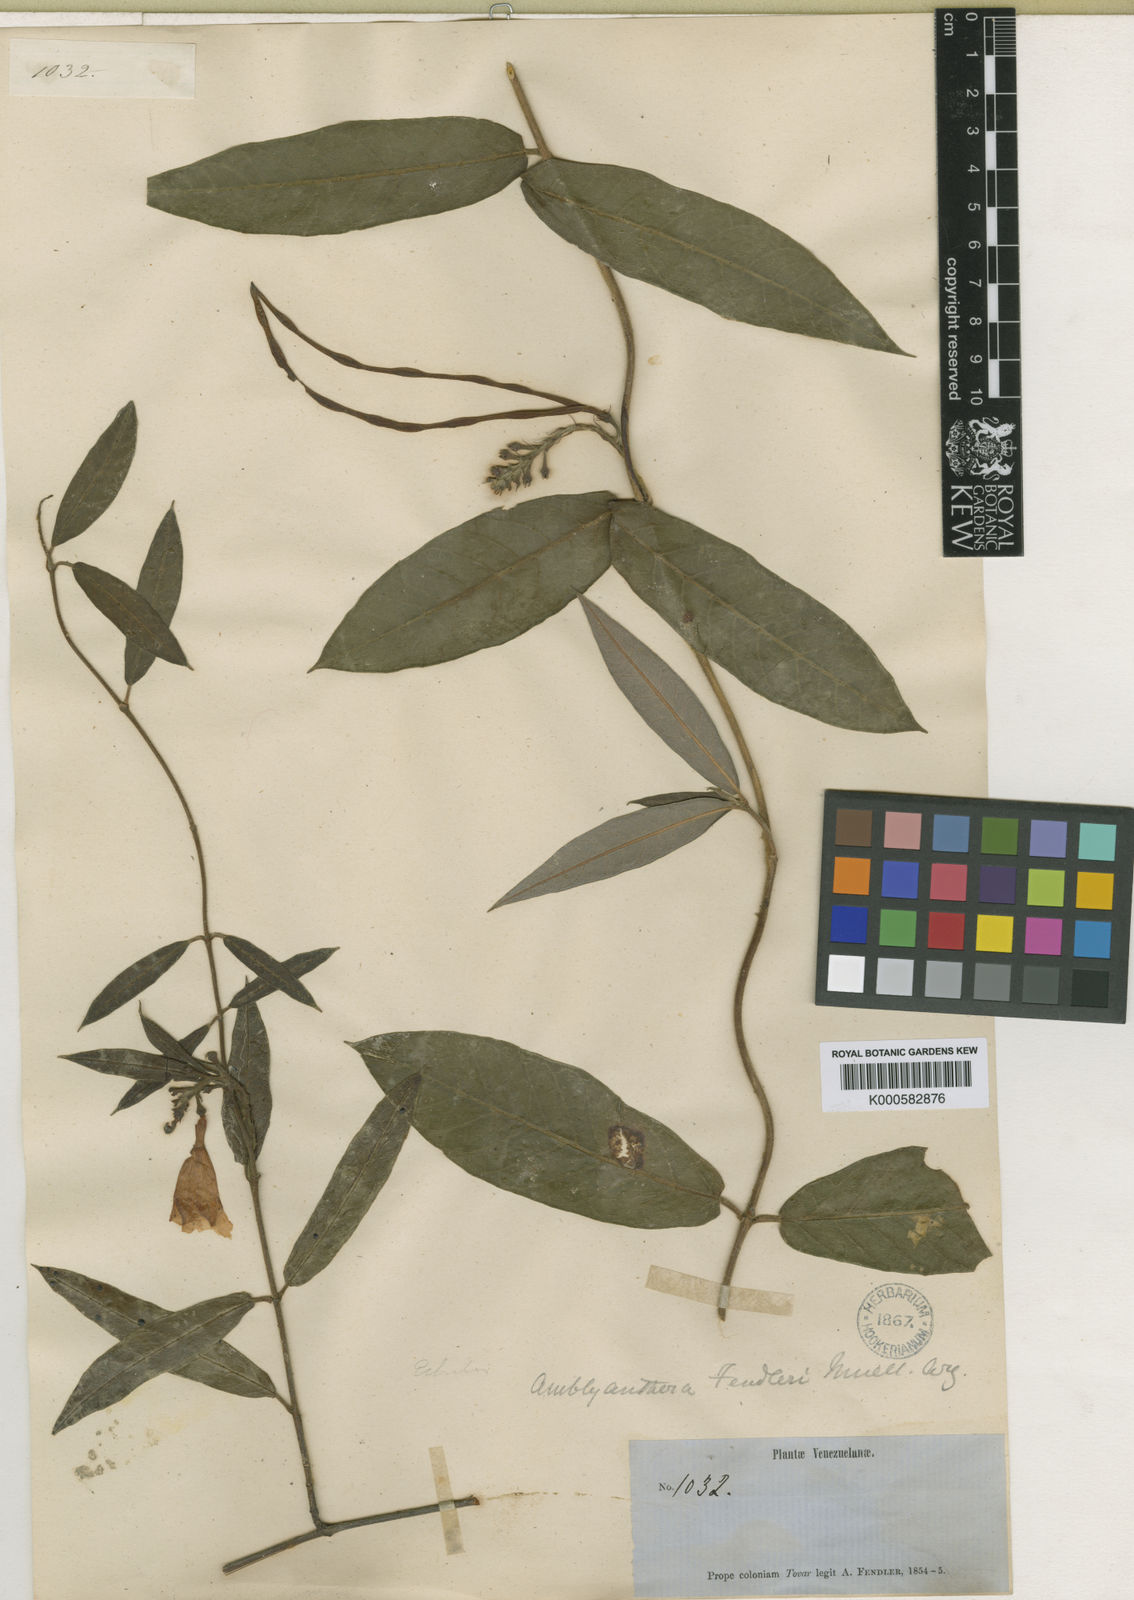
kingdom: Plantae
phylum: Tracheophyta
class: Magnoliopsida
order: Gentianales
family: Apocynaceae
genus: Mandevilla
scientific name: Mandevilla
